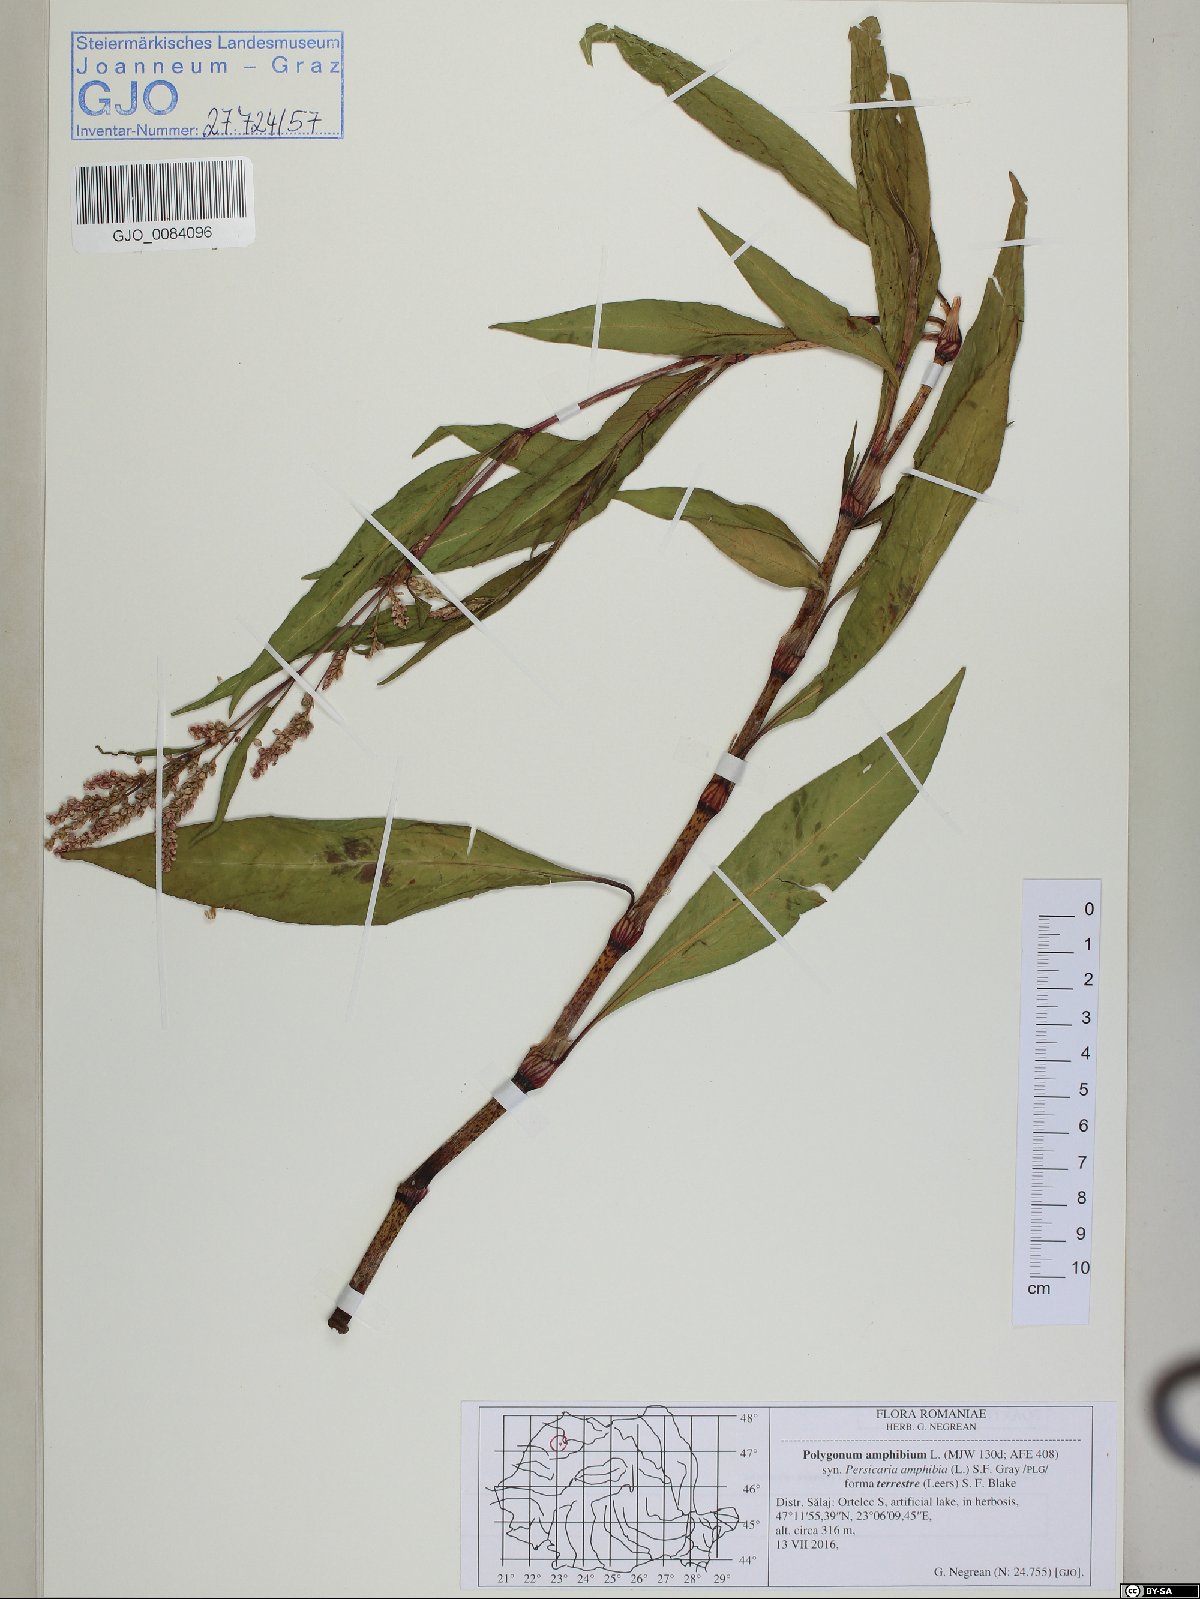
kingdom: Plantae
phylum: Tracheophyta
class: Magnoliopsida
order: Caryophyllales
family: Polygonaceae
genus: Persicaria
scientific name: Persicaria amphibia
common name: Amphibious bistort
